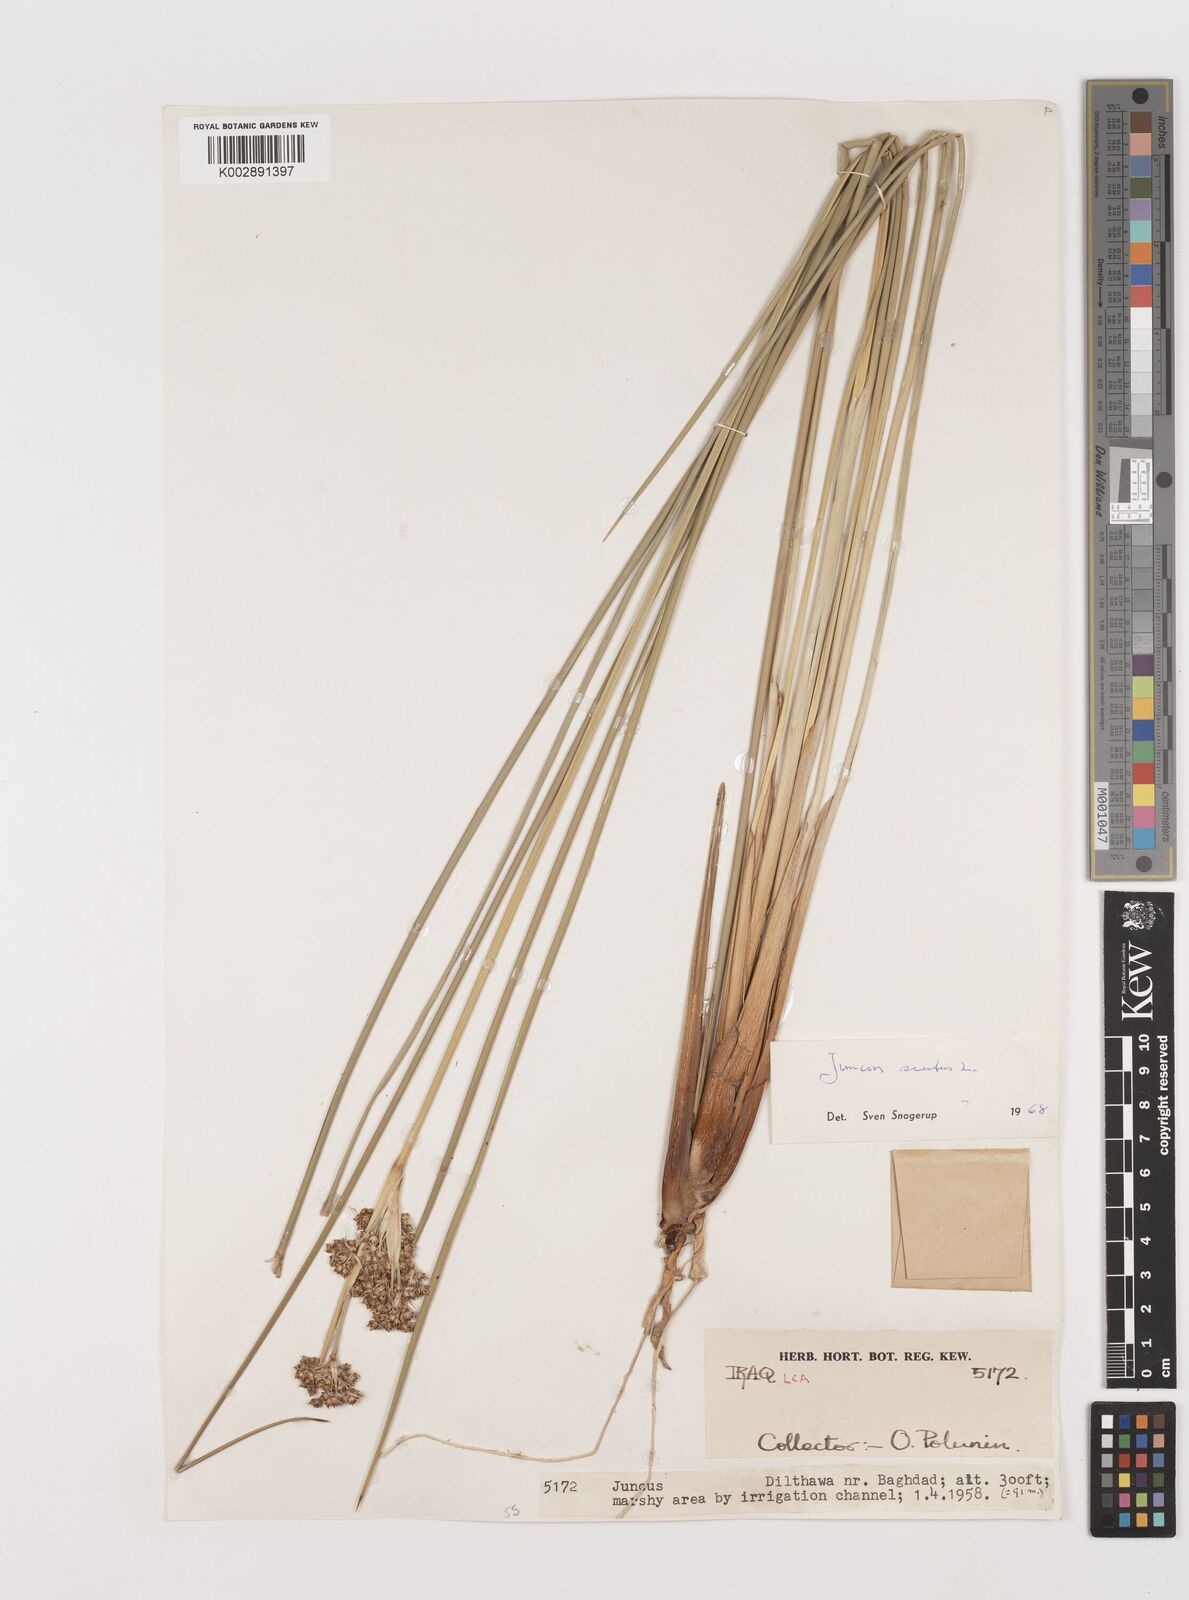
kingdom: Plantae
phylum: Tracheophyta
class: Liliopsida
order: Poales
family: Juncaceae
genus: Juncus
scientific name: Juncus acutus
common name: Sharp rush
